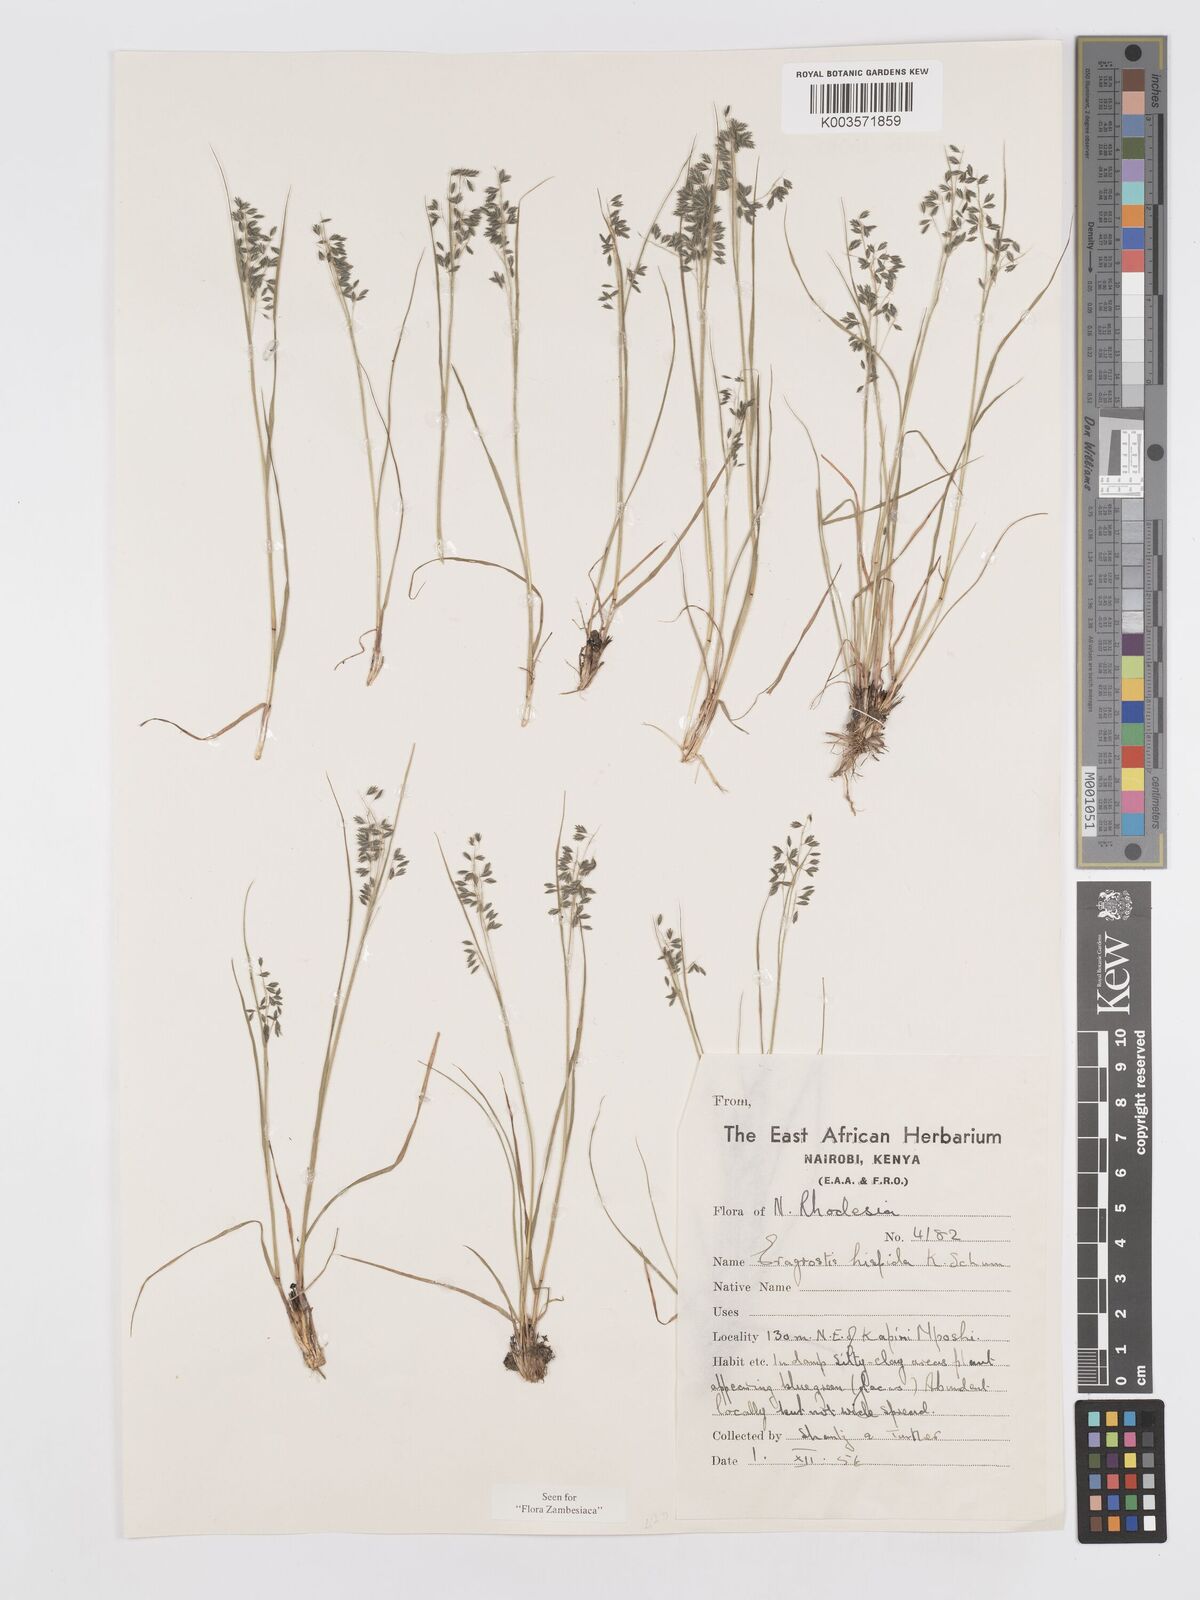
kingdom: Plantae
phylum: Tracheophyta
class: Liliopsida
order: Poales
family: Poaceae
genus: Eragrostis
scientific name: Eragrostis hispida
